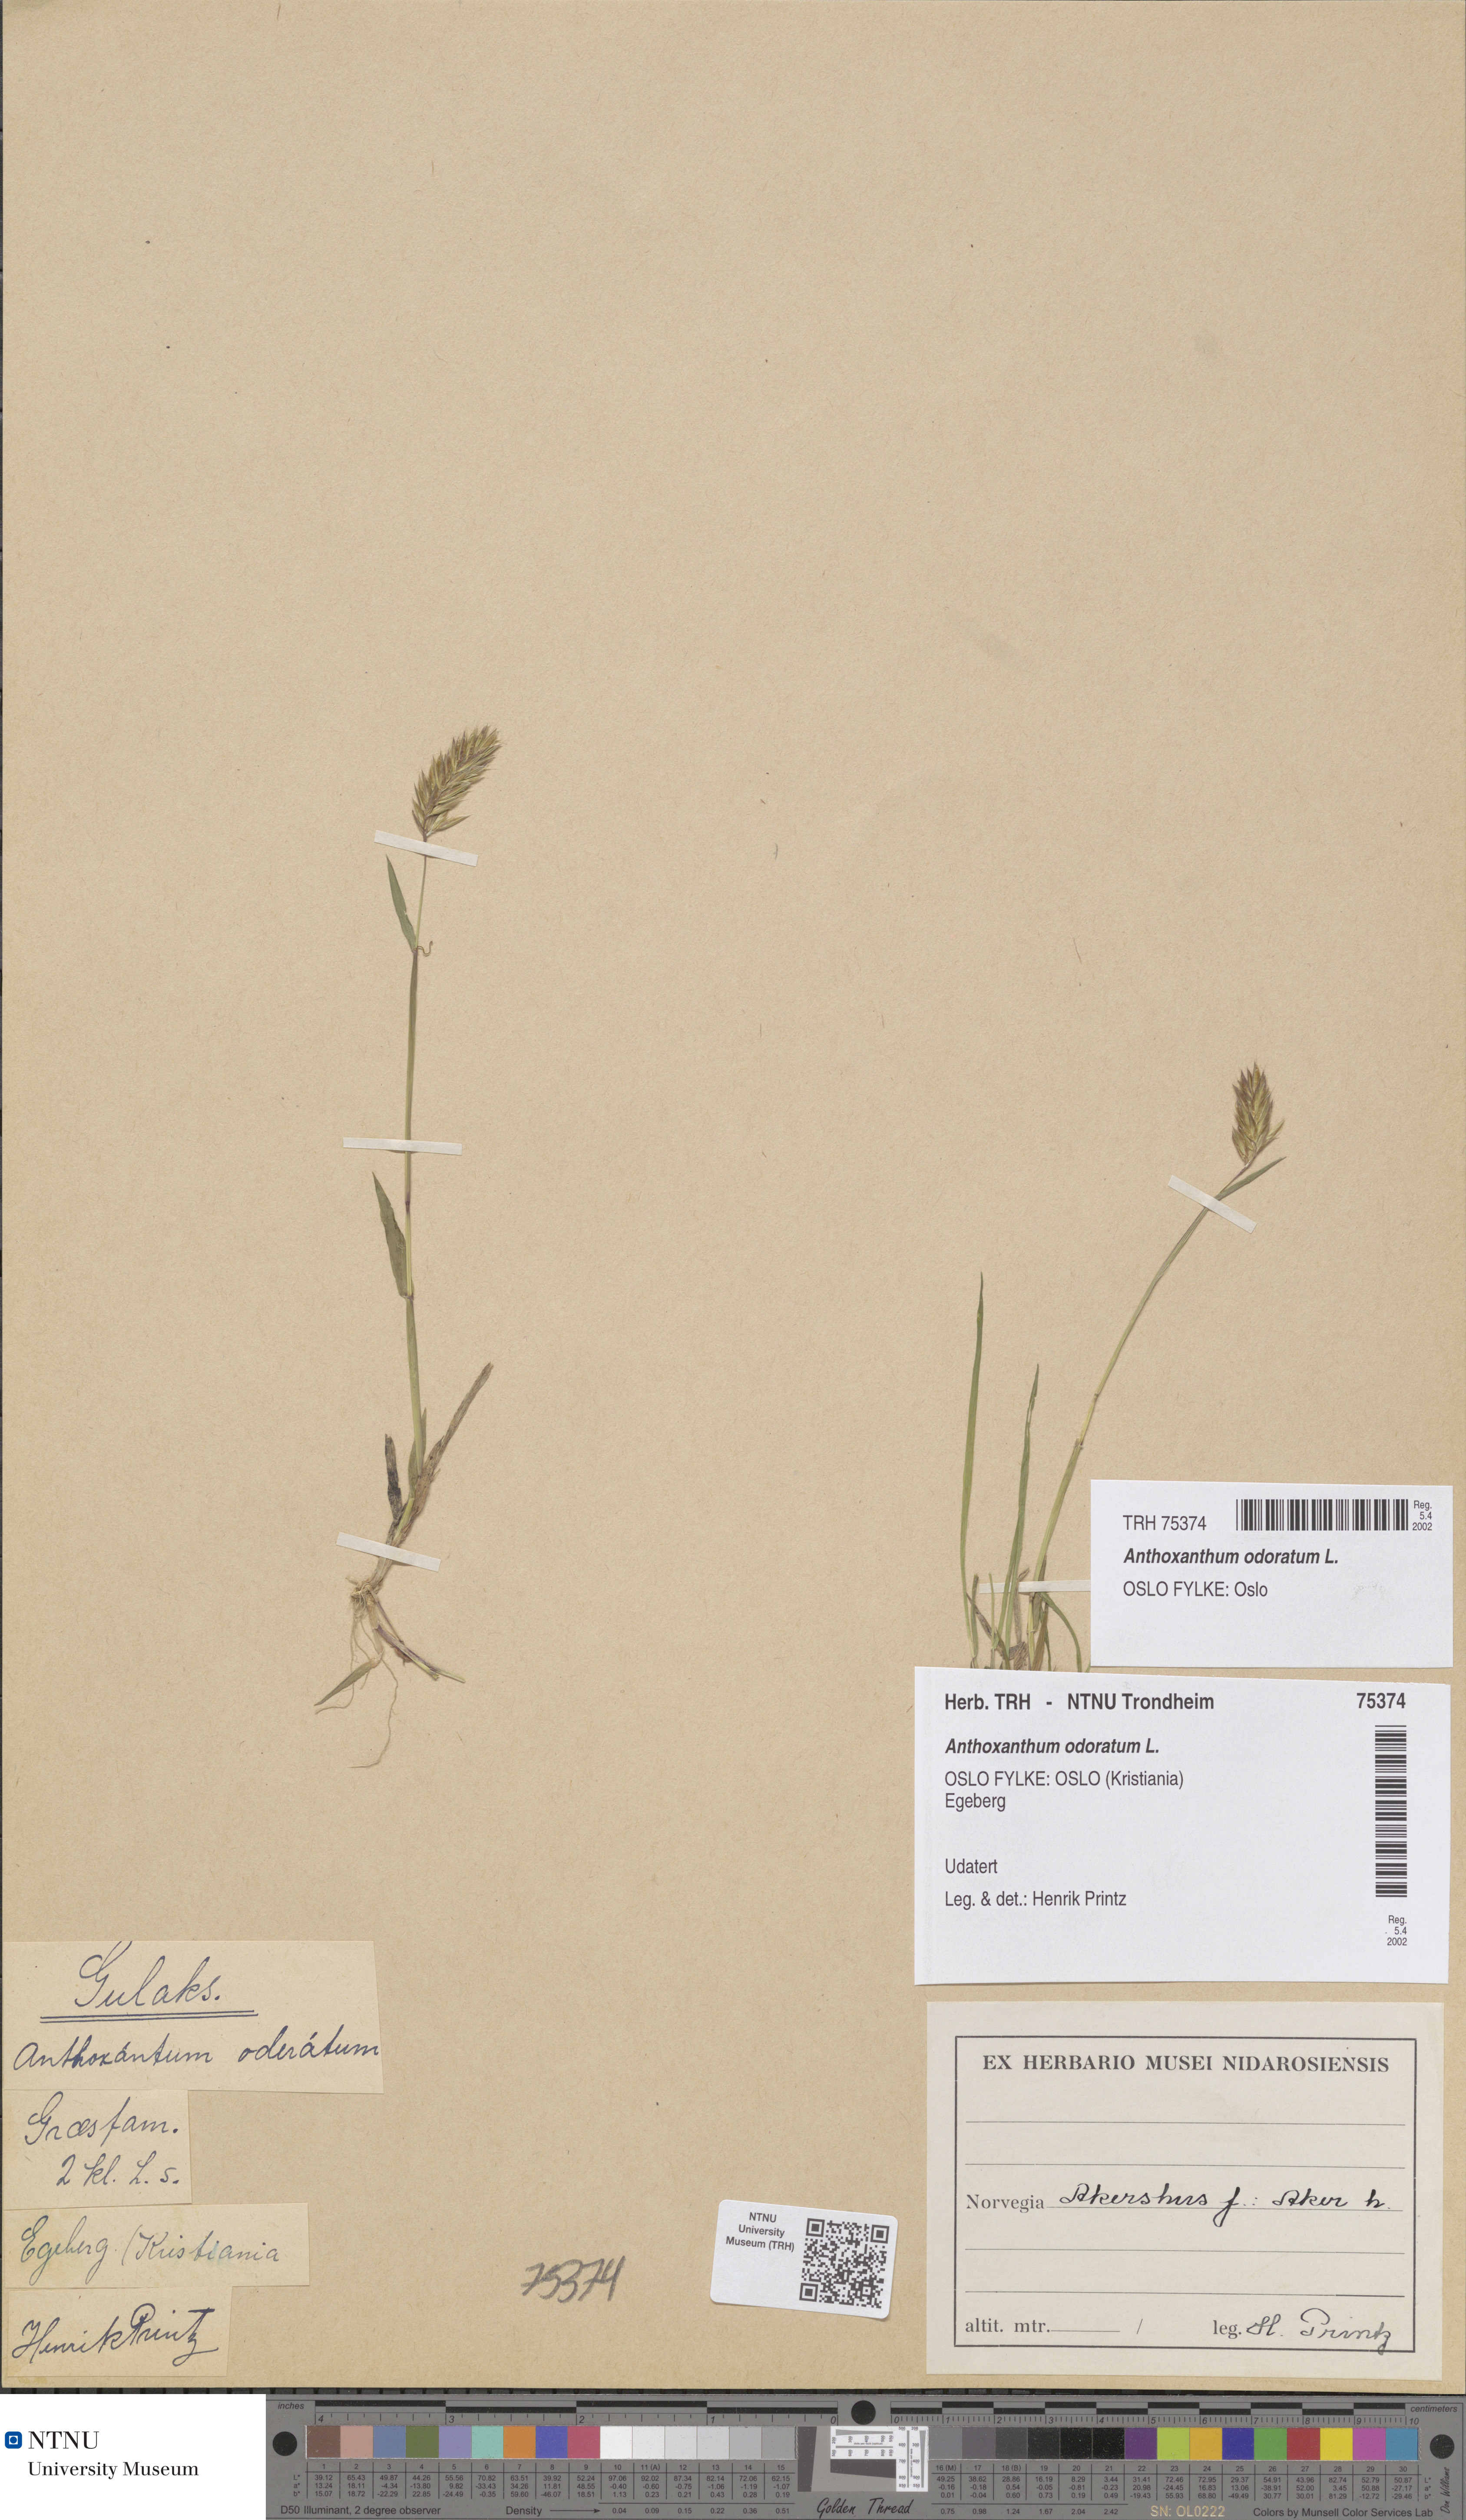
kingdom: Plantae
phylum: Tracheophyta
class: Liliopsida
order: Poales
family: Poaceae
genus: Anthoxanthum
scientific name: Anthoxanthum odoratum
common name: Sweet vernalgrass
